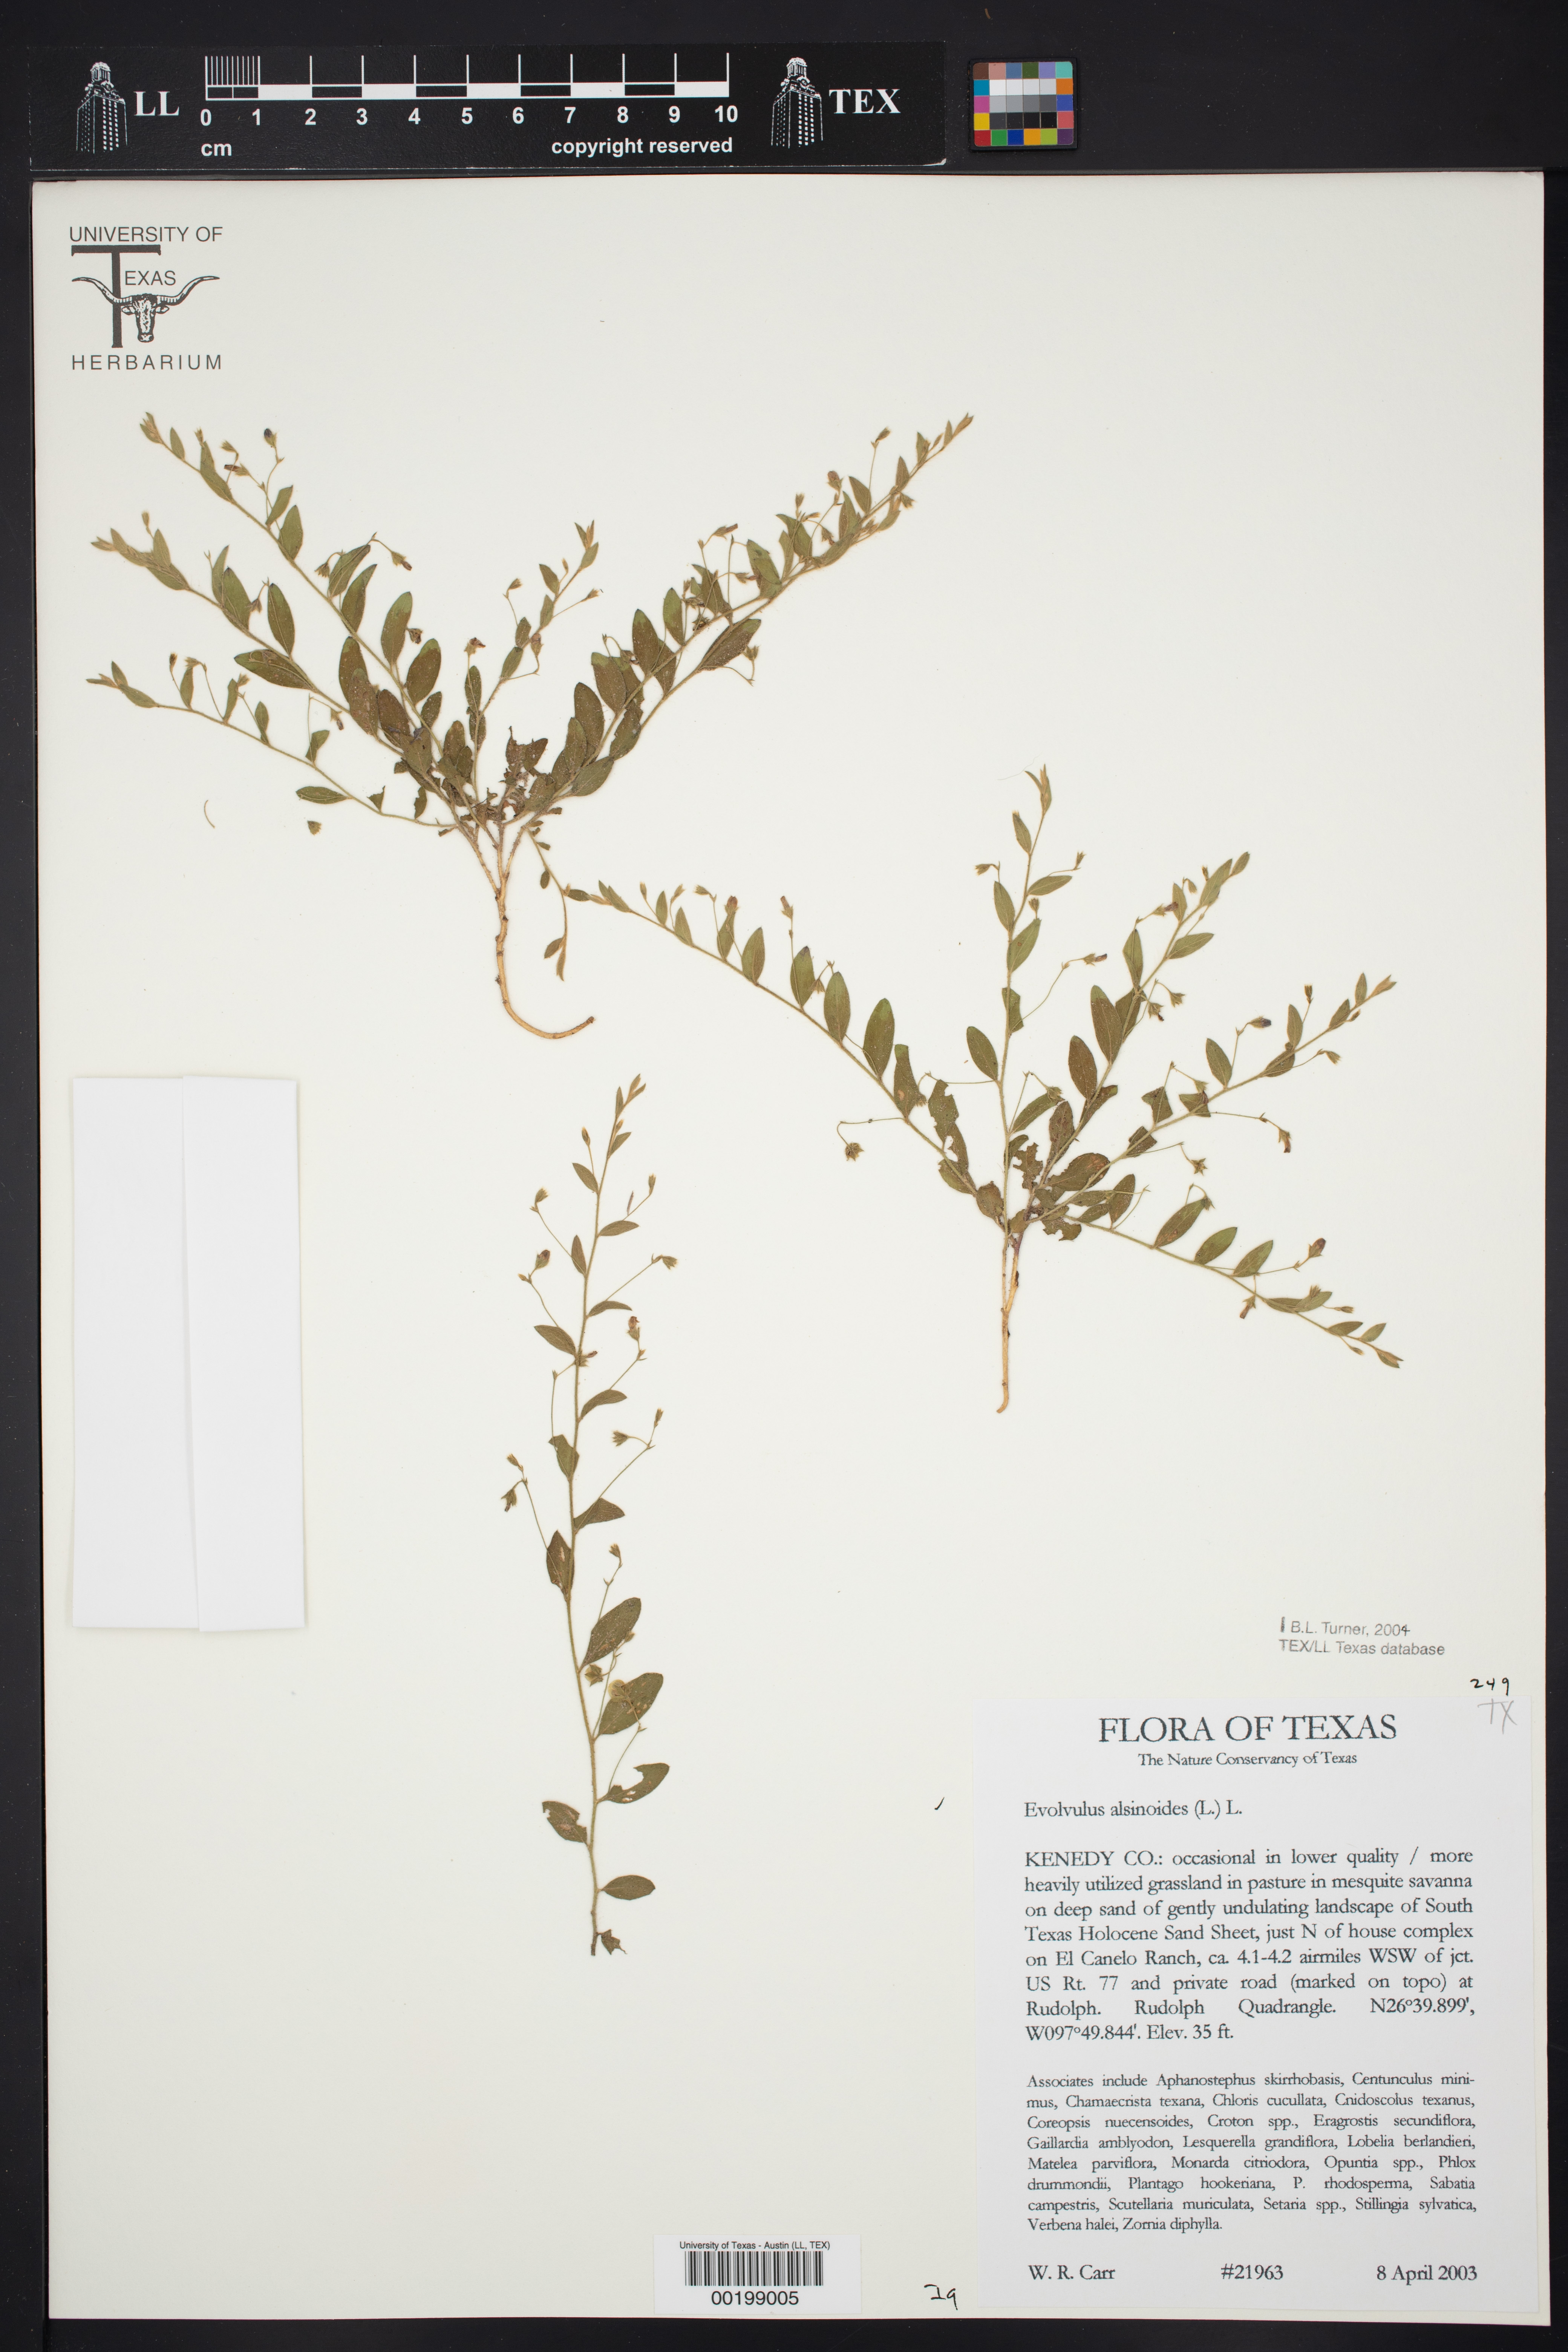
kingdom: Plantae
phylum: Tracheophyta
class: Magnoliopsida
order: Solanales
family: Convolvulaceae
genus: Evolvulus
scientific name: Evolvulus alsinoides
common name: Slender dwarf morning-glory
